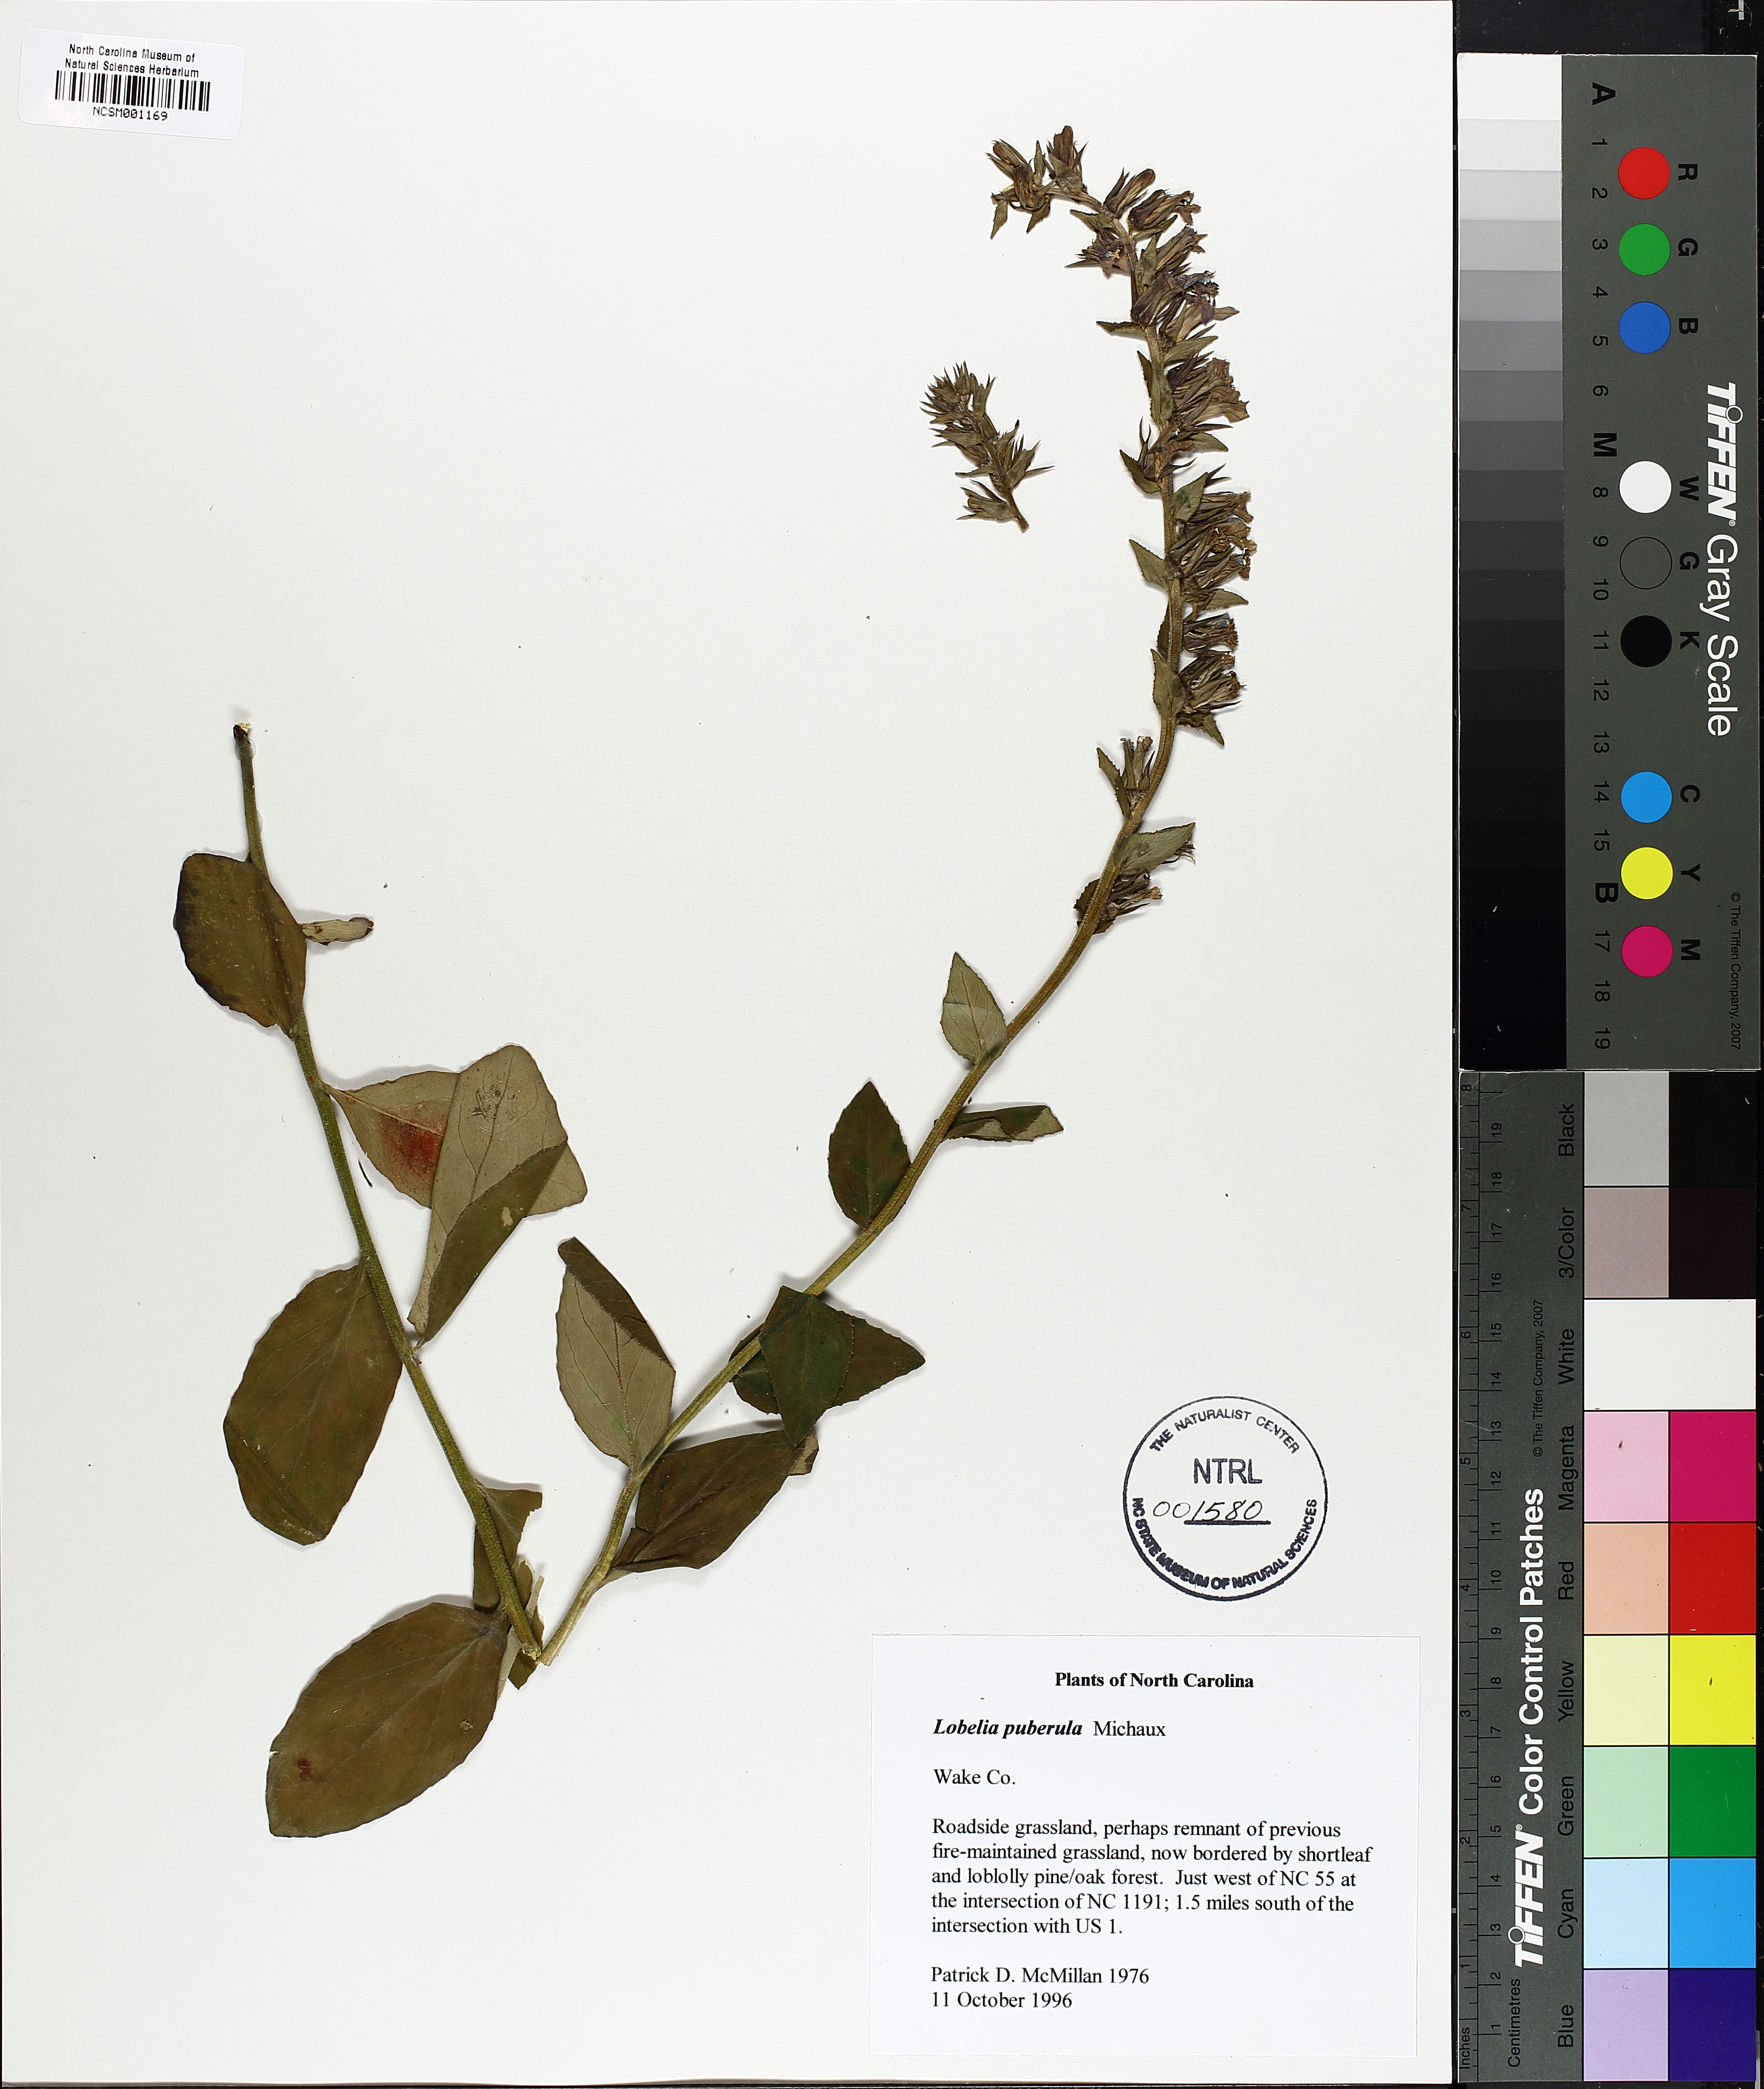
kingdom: Plantae
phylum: Tracheophyta
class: Magnoliopsida
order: Asterales
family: Campanulaceae
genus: Lobelia
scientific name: Lobelia puberula
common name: Purple dewdrop
